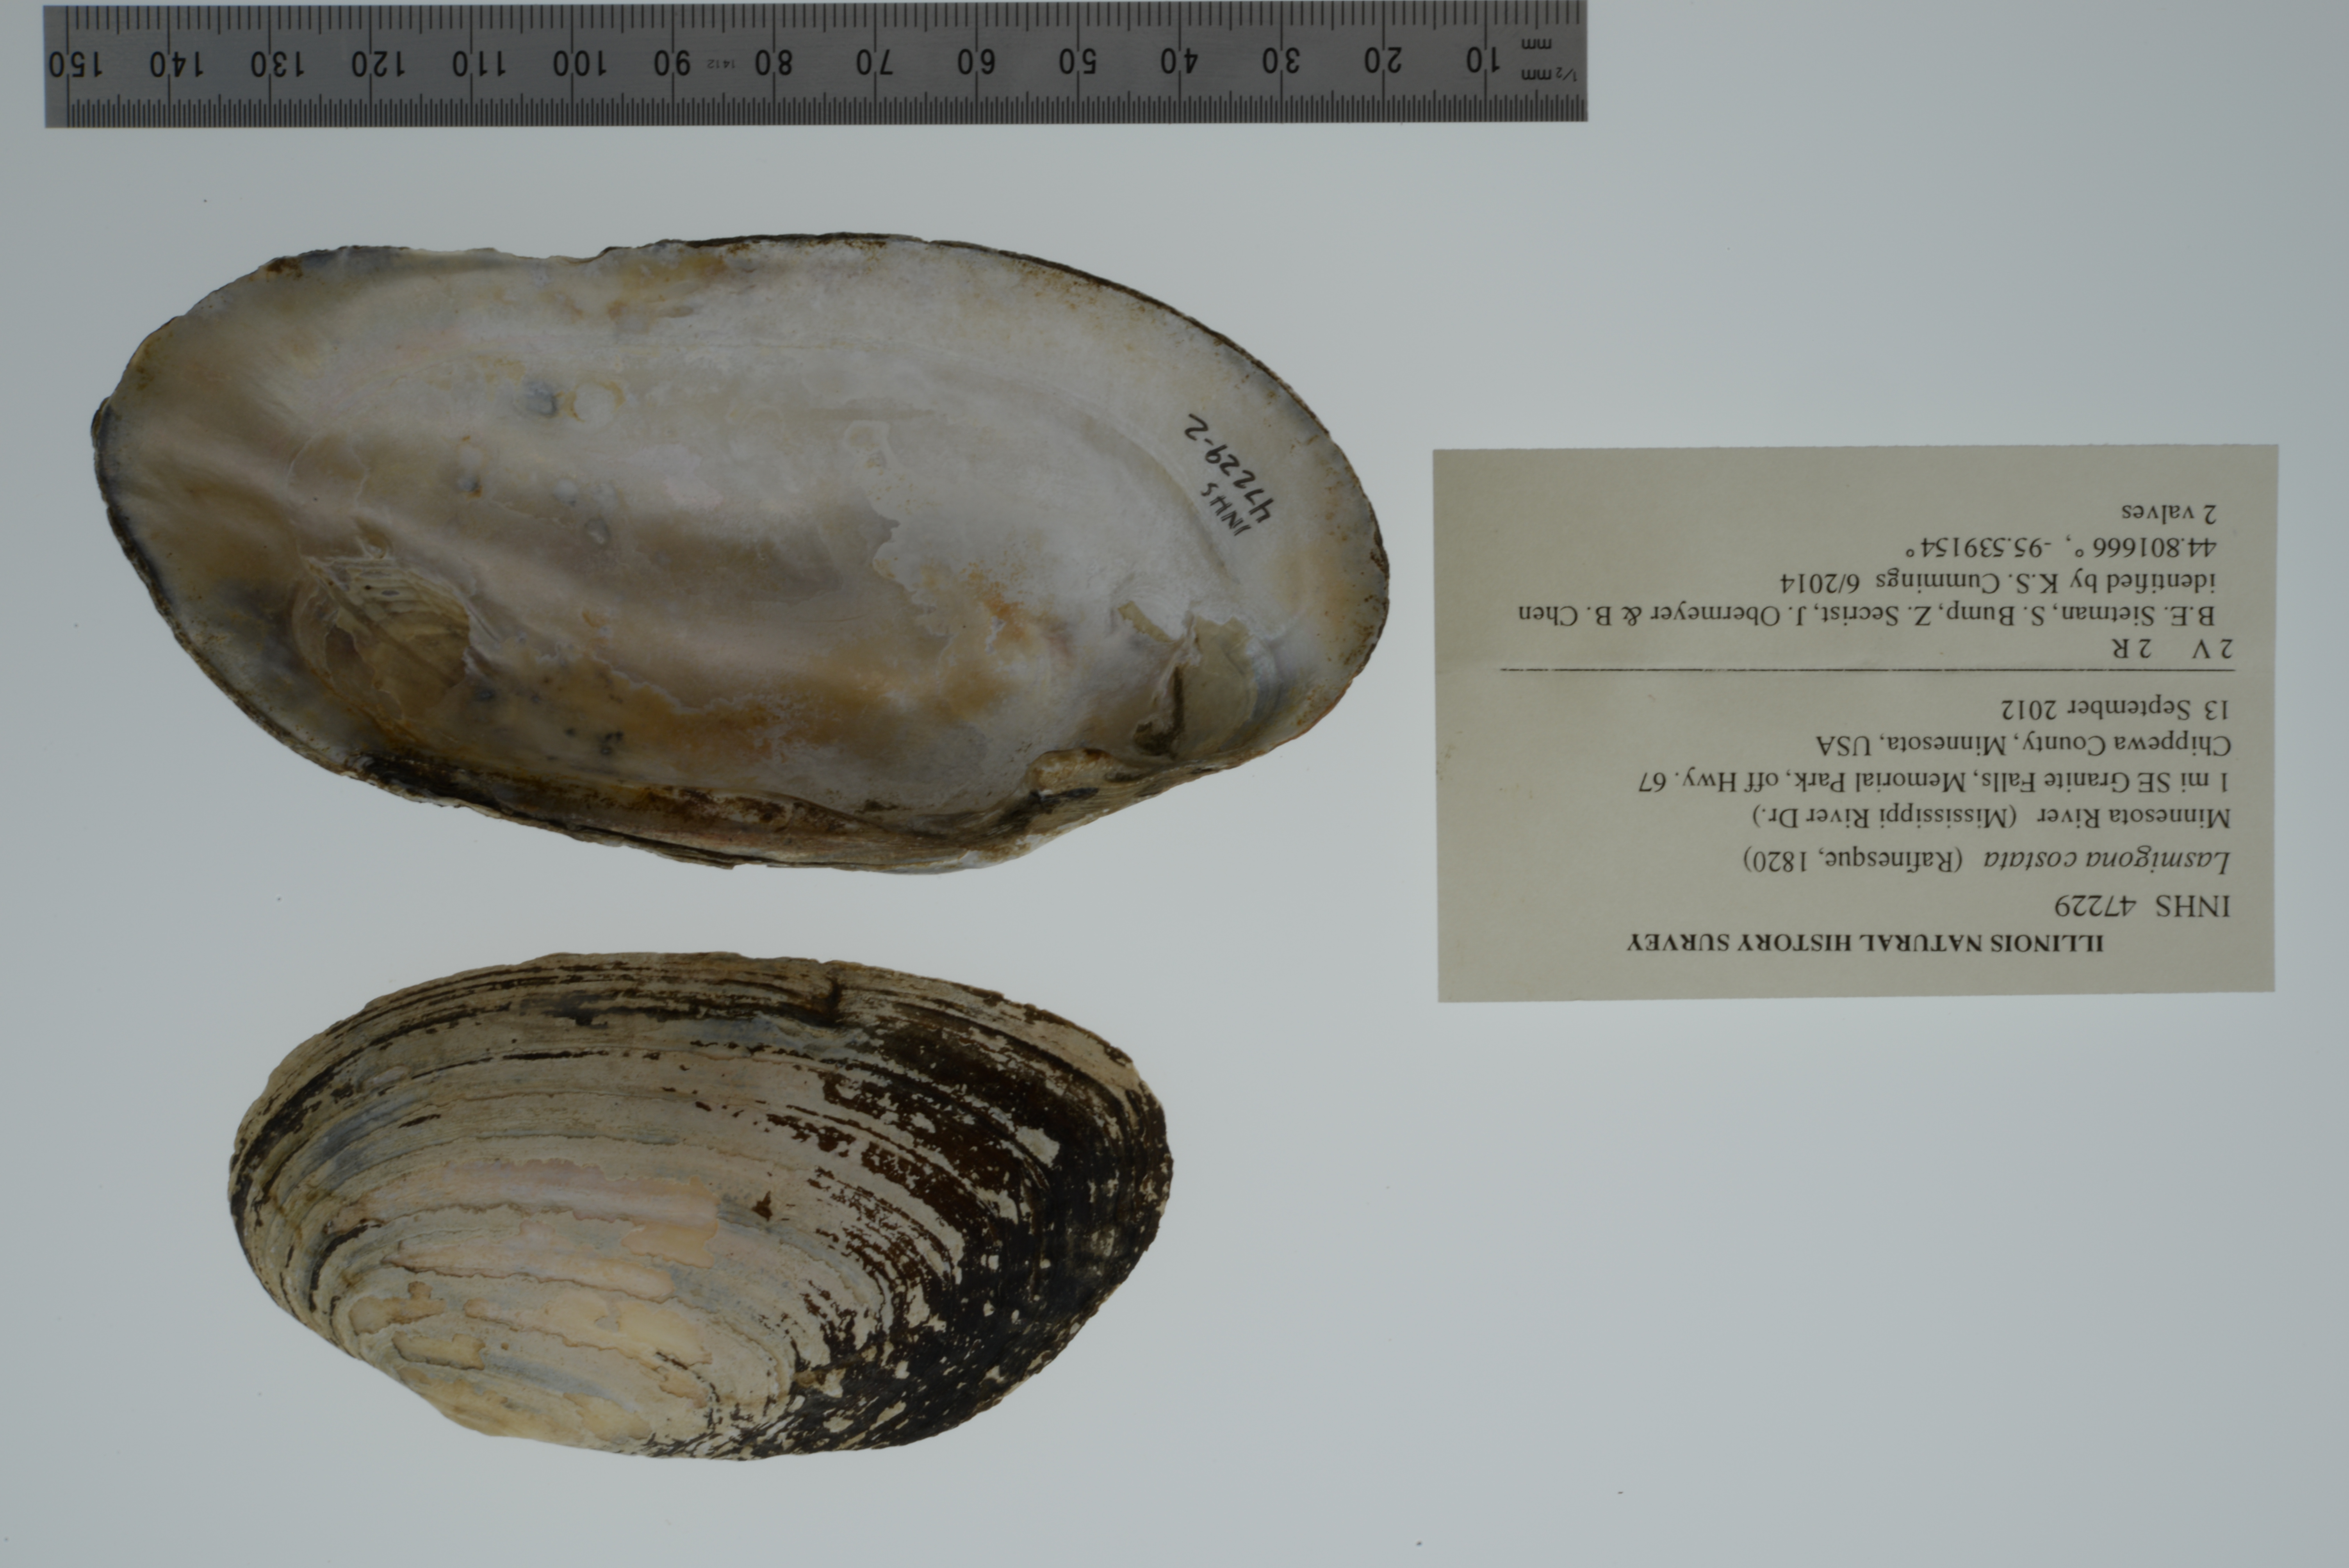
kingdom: Animalia
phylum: Mollusca
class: Bivalvia
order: Unionida
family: Unionidae
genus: Lasmigona
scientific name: Lasmigona costata
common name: Flutedshell
